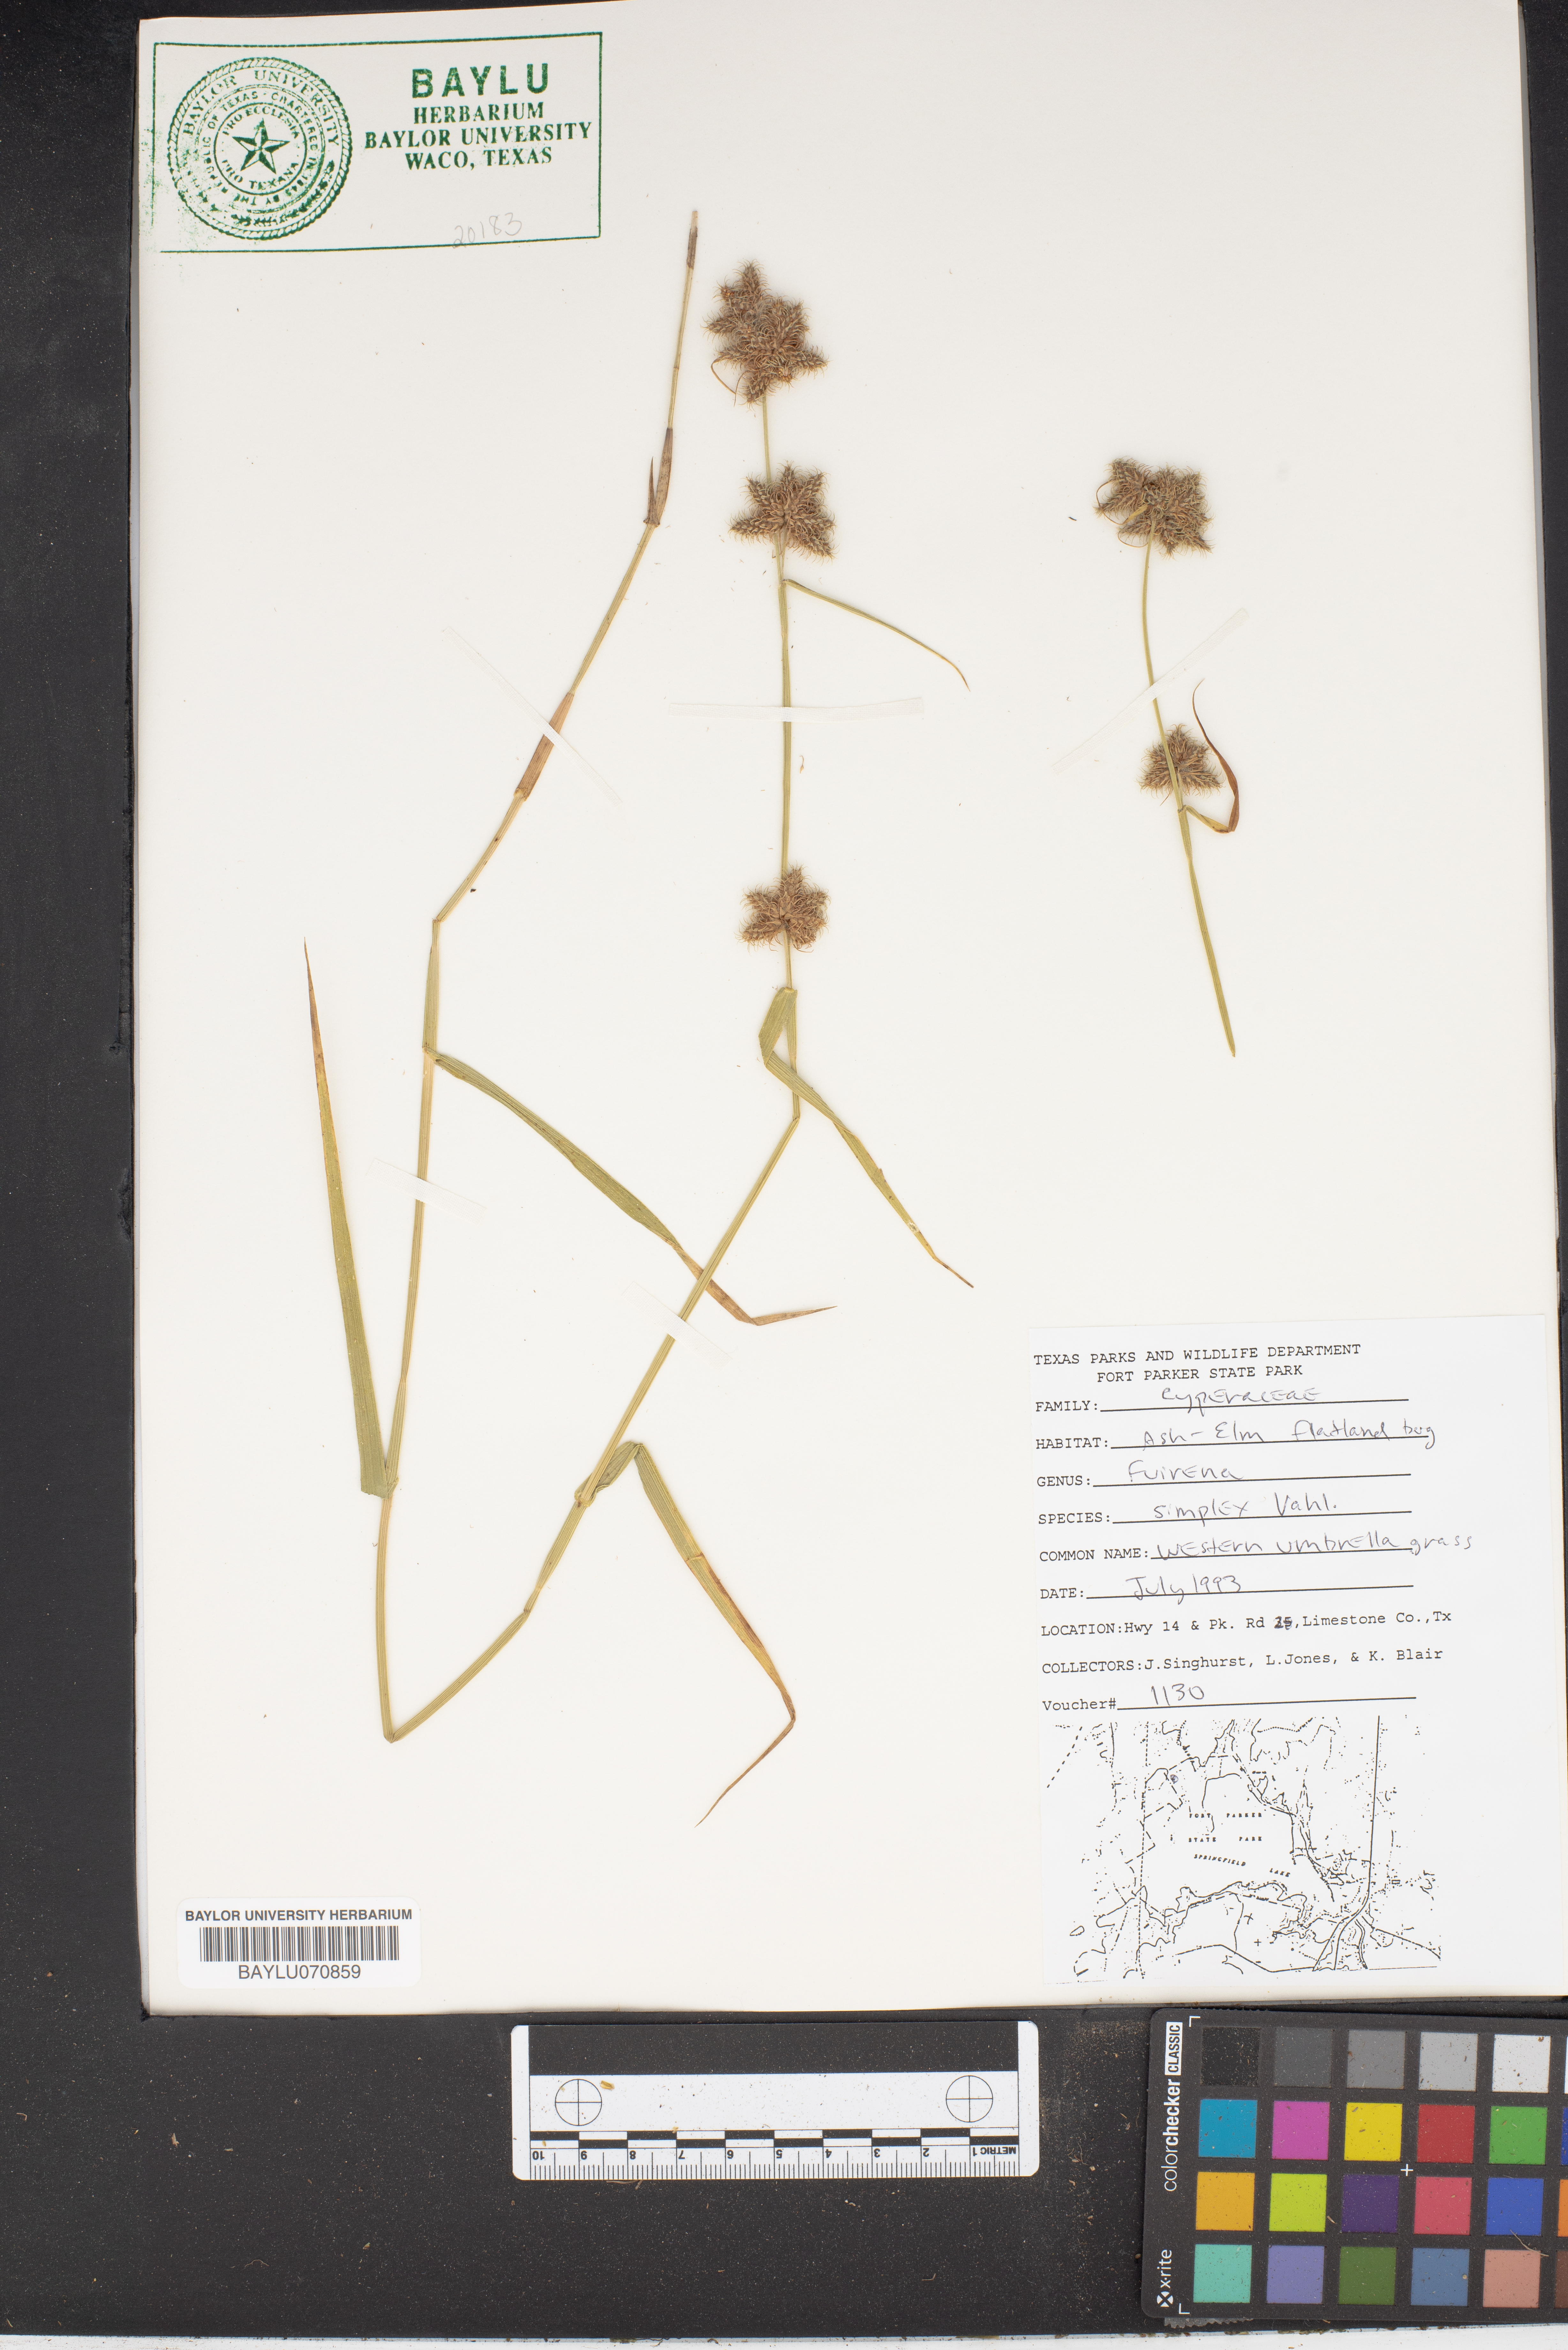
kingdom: Plantae
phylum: Tracheophyta
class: Liliopsida
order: Poales
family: Cyperaceae
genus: Fuirena
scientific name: Fuirena simplex
